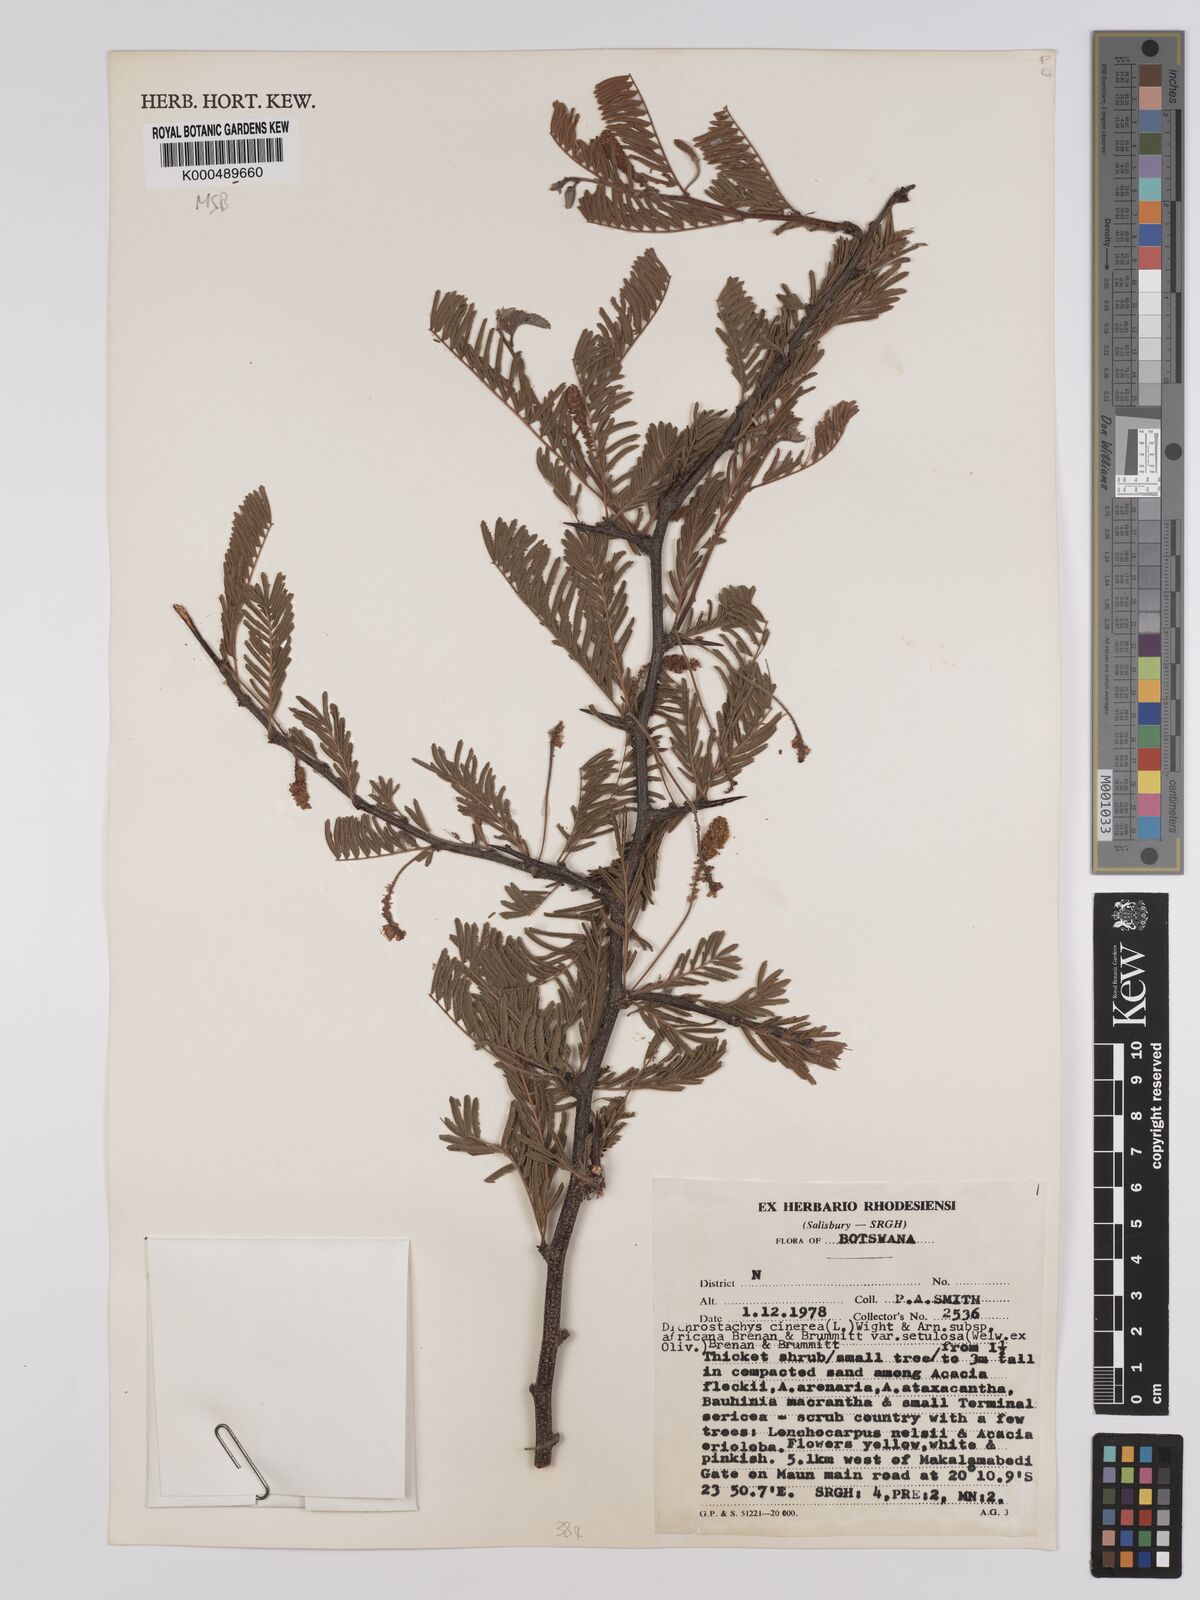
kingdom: Plantae
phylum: Tracheophyta
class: Magnoliopsida
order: Fabales
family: Fabaceae
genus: Dichrostachys
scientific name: Dichrostachys cinerea
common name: Sicklebush
